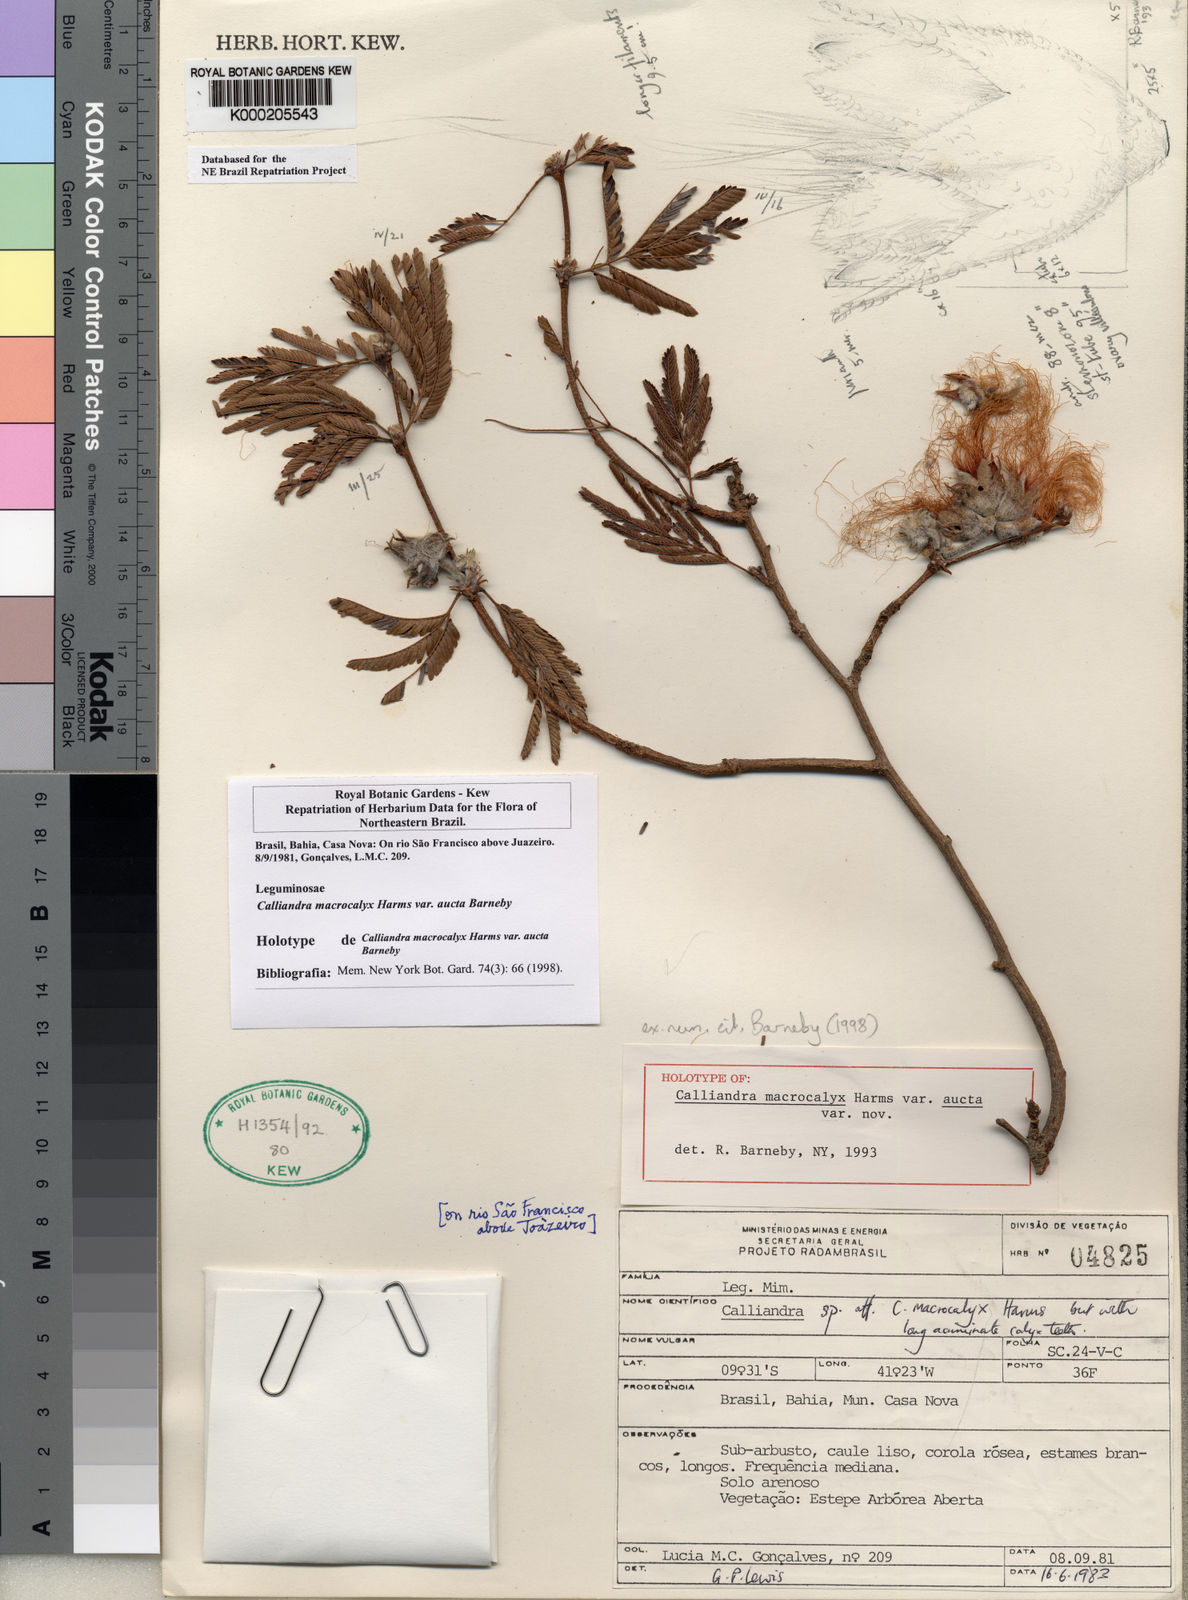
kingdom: Plantae
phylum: Tracheophyta
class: Magnoliopsida
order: Fabales
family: Fabaceae
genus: Calliandra
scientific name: Calliandra macrocalyx
